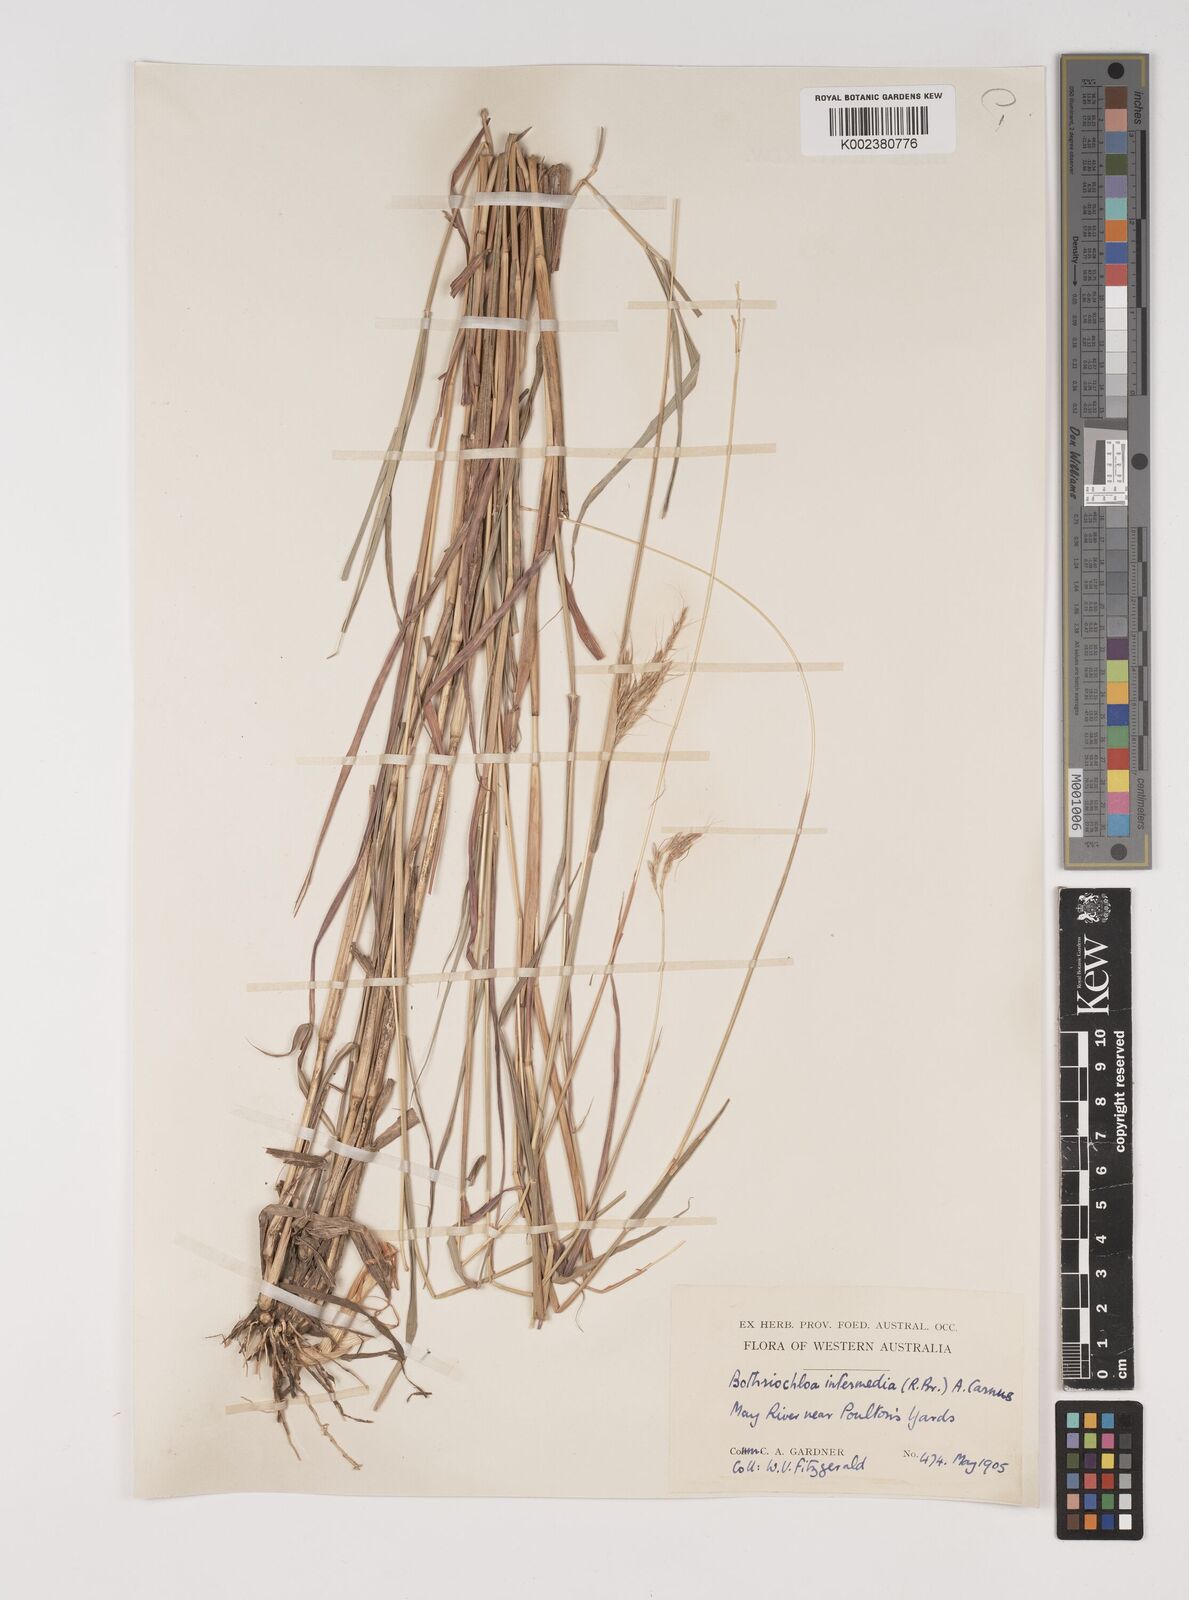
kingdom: Plantae
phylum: Tracheophyta
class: Liliopsida
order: Poales
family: Poaceae
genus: Bothriochloa
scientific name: Bothriochloa bladhii
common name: Caucasian bluestem
